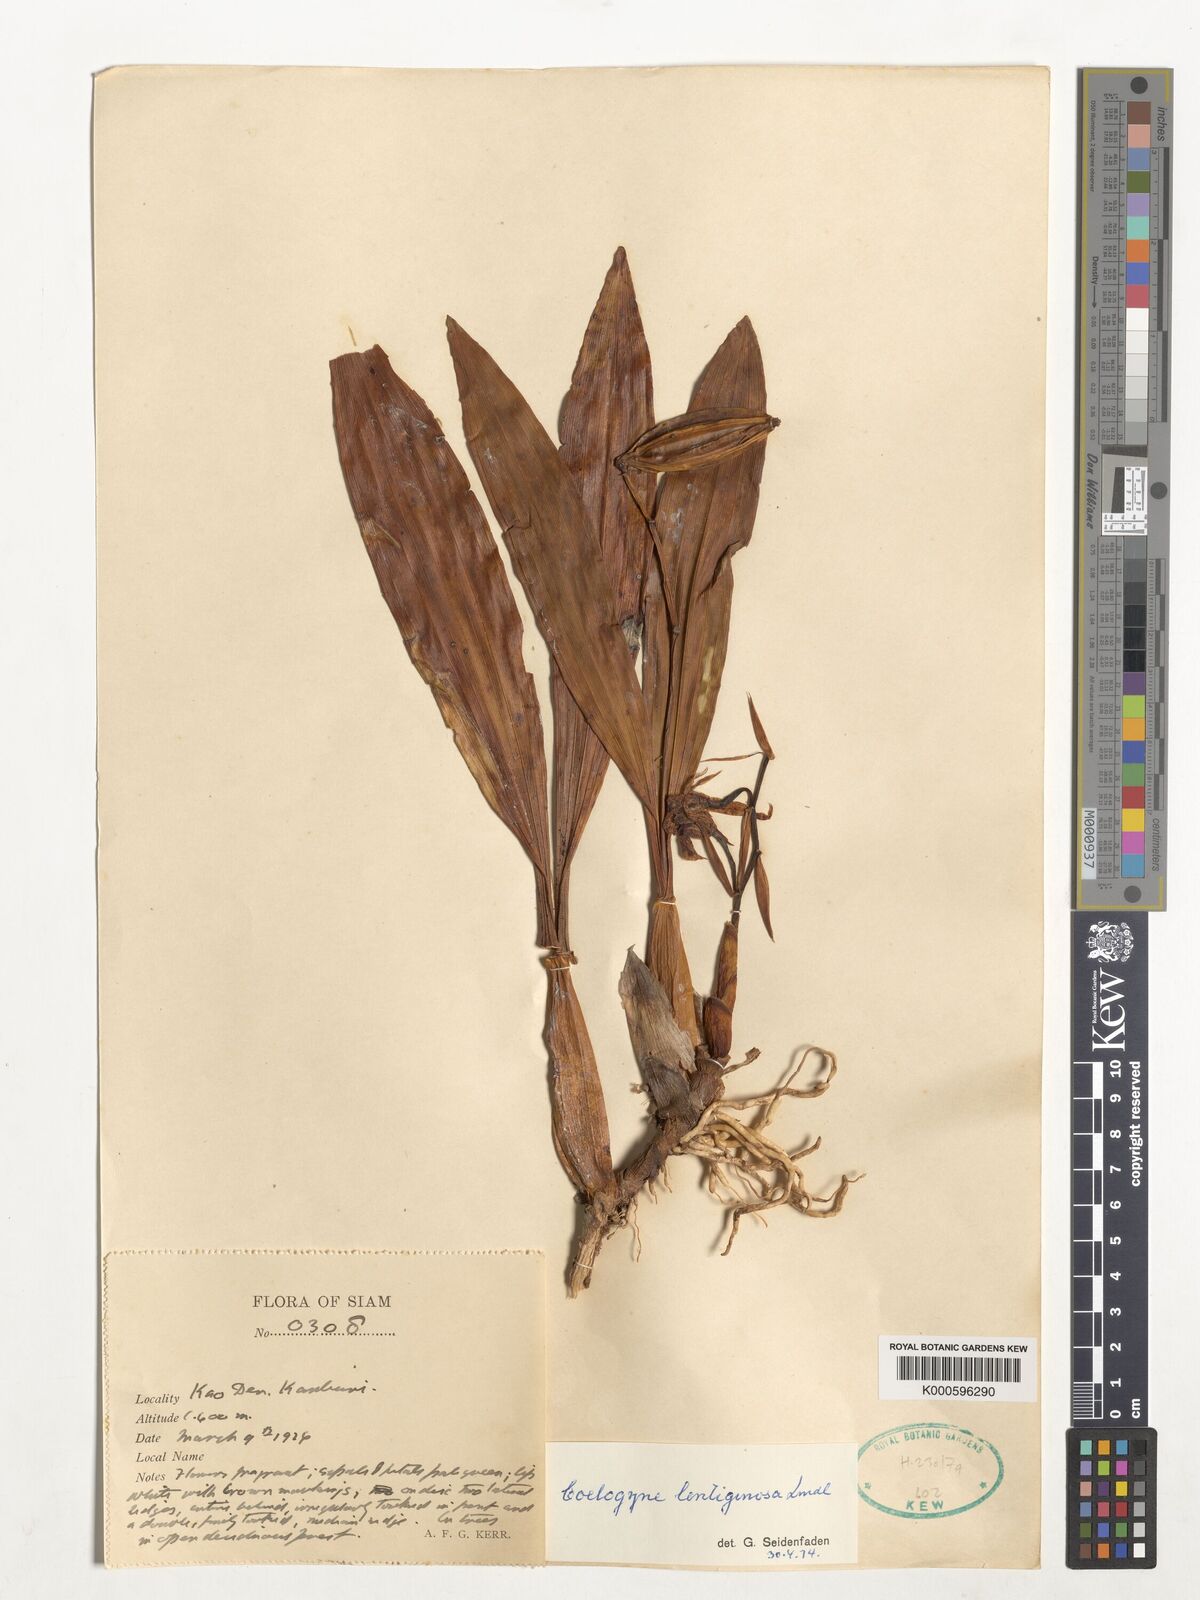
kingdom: Plantae
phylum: Tracheophyta
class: Liliopsida
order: Asparagales
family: Orchidaceae
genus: Coelogyne
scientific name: Coelogyne lentiginosa
